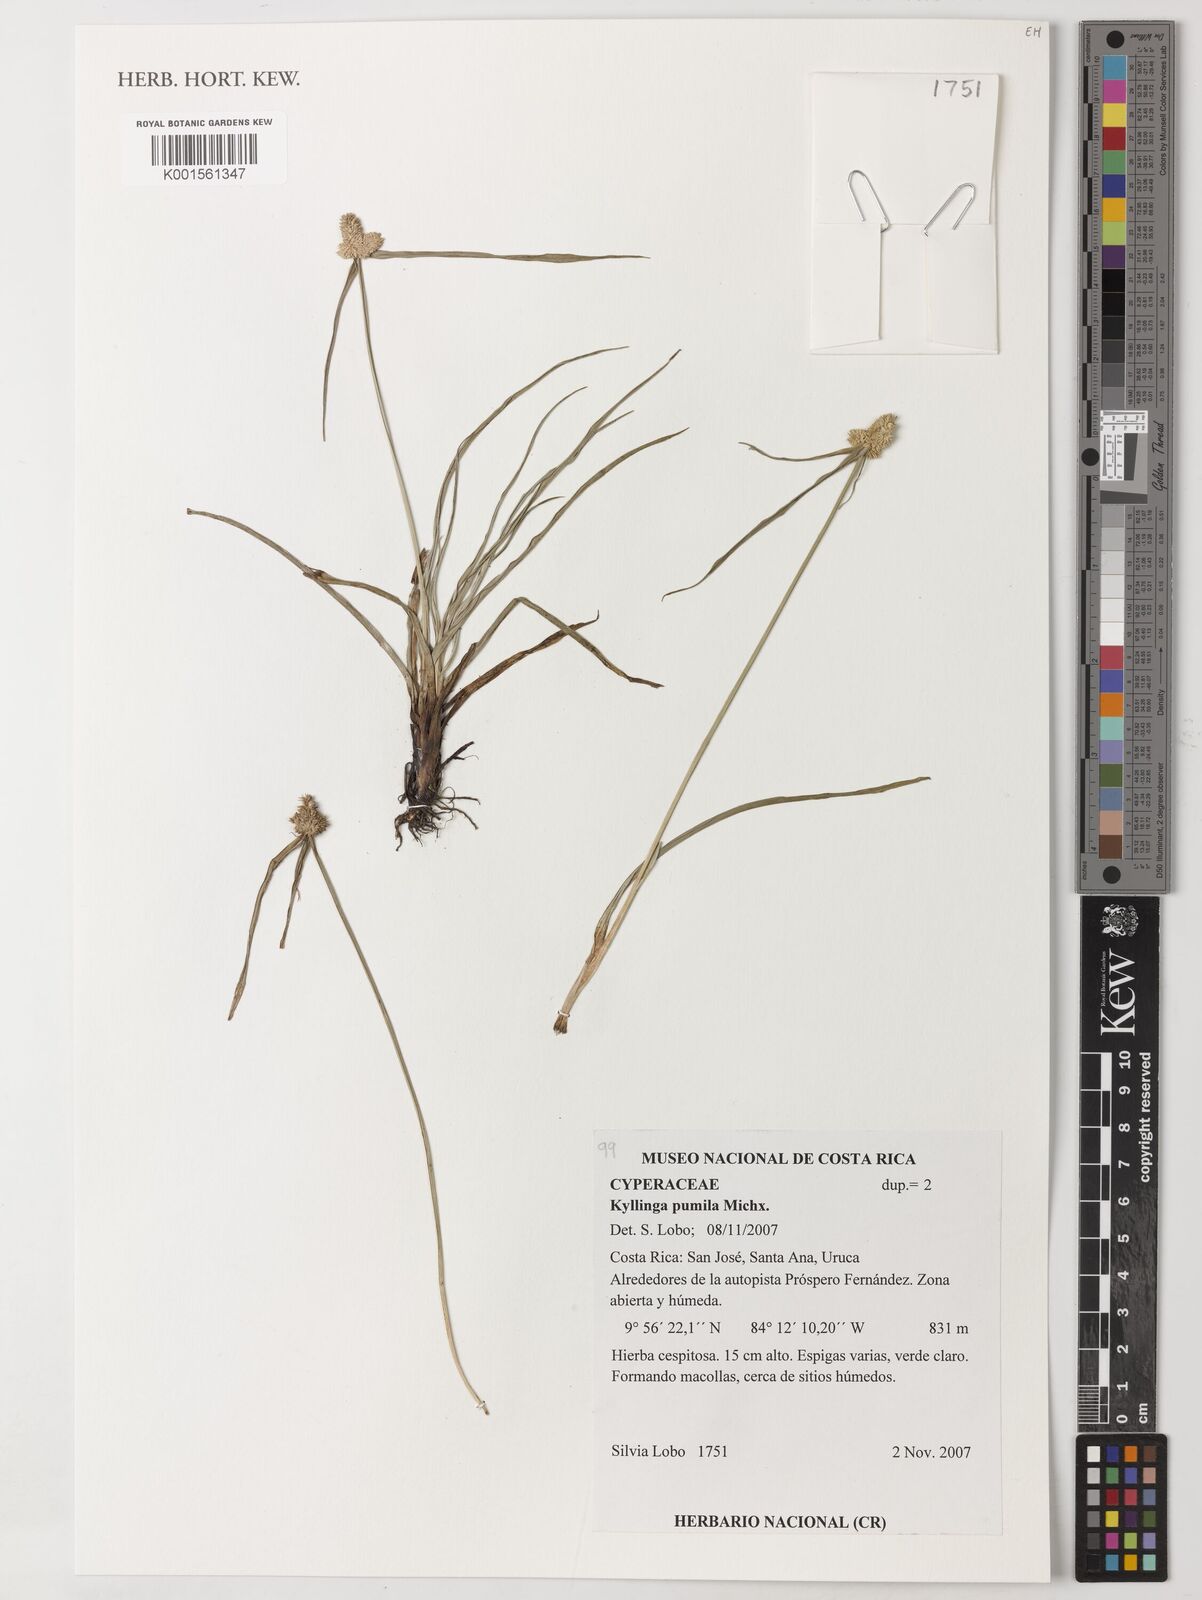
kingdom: Plantae
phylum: Tracheophyta
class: Liliopsida
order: Poales
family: Cyperaceae
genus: Cyperus
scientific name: Cyperus hortensis
